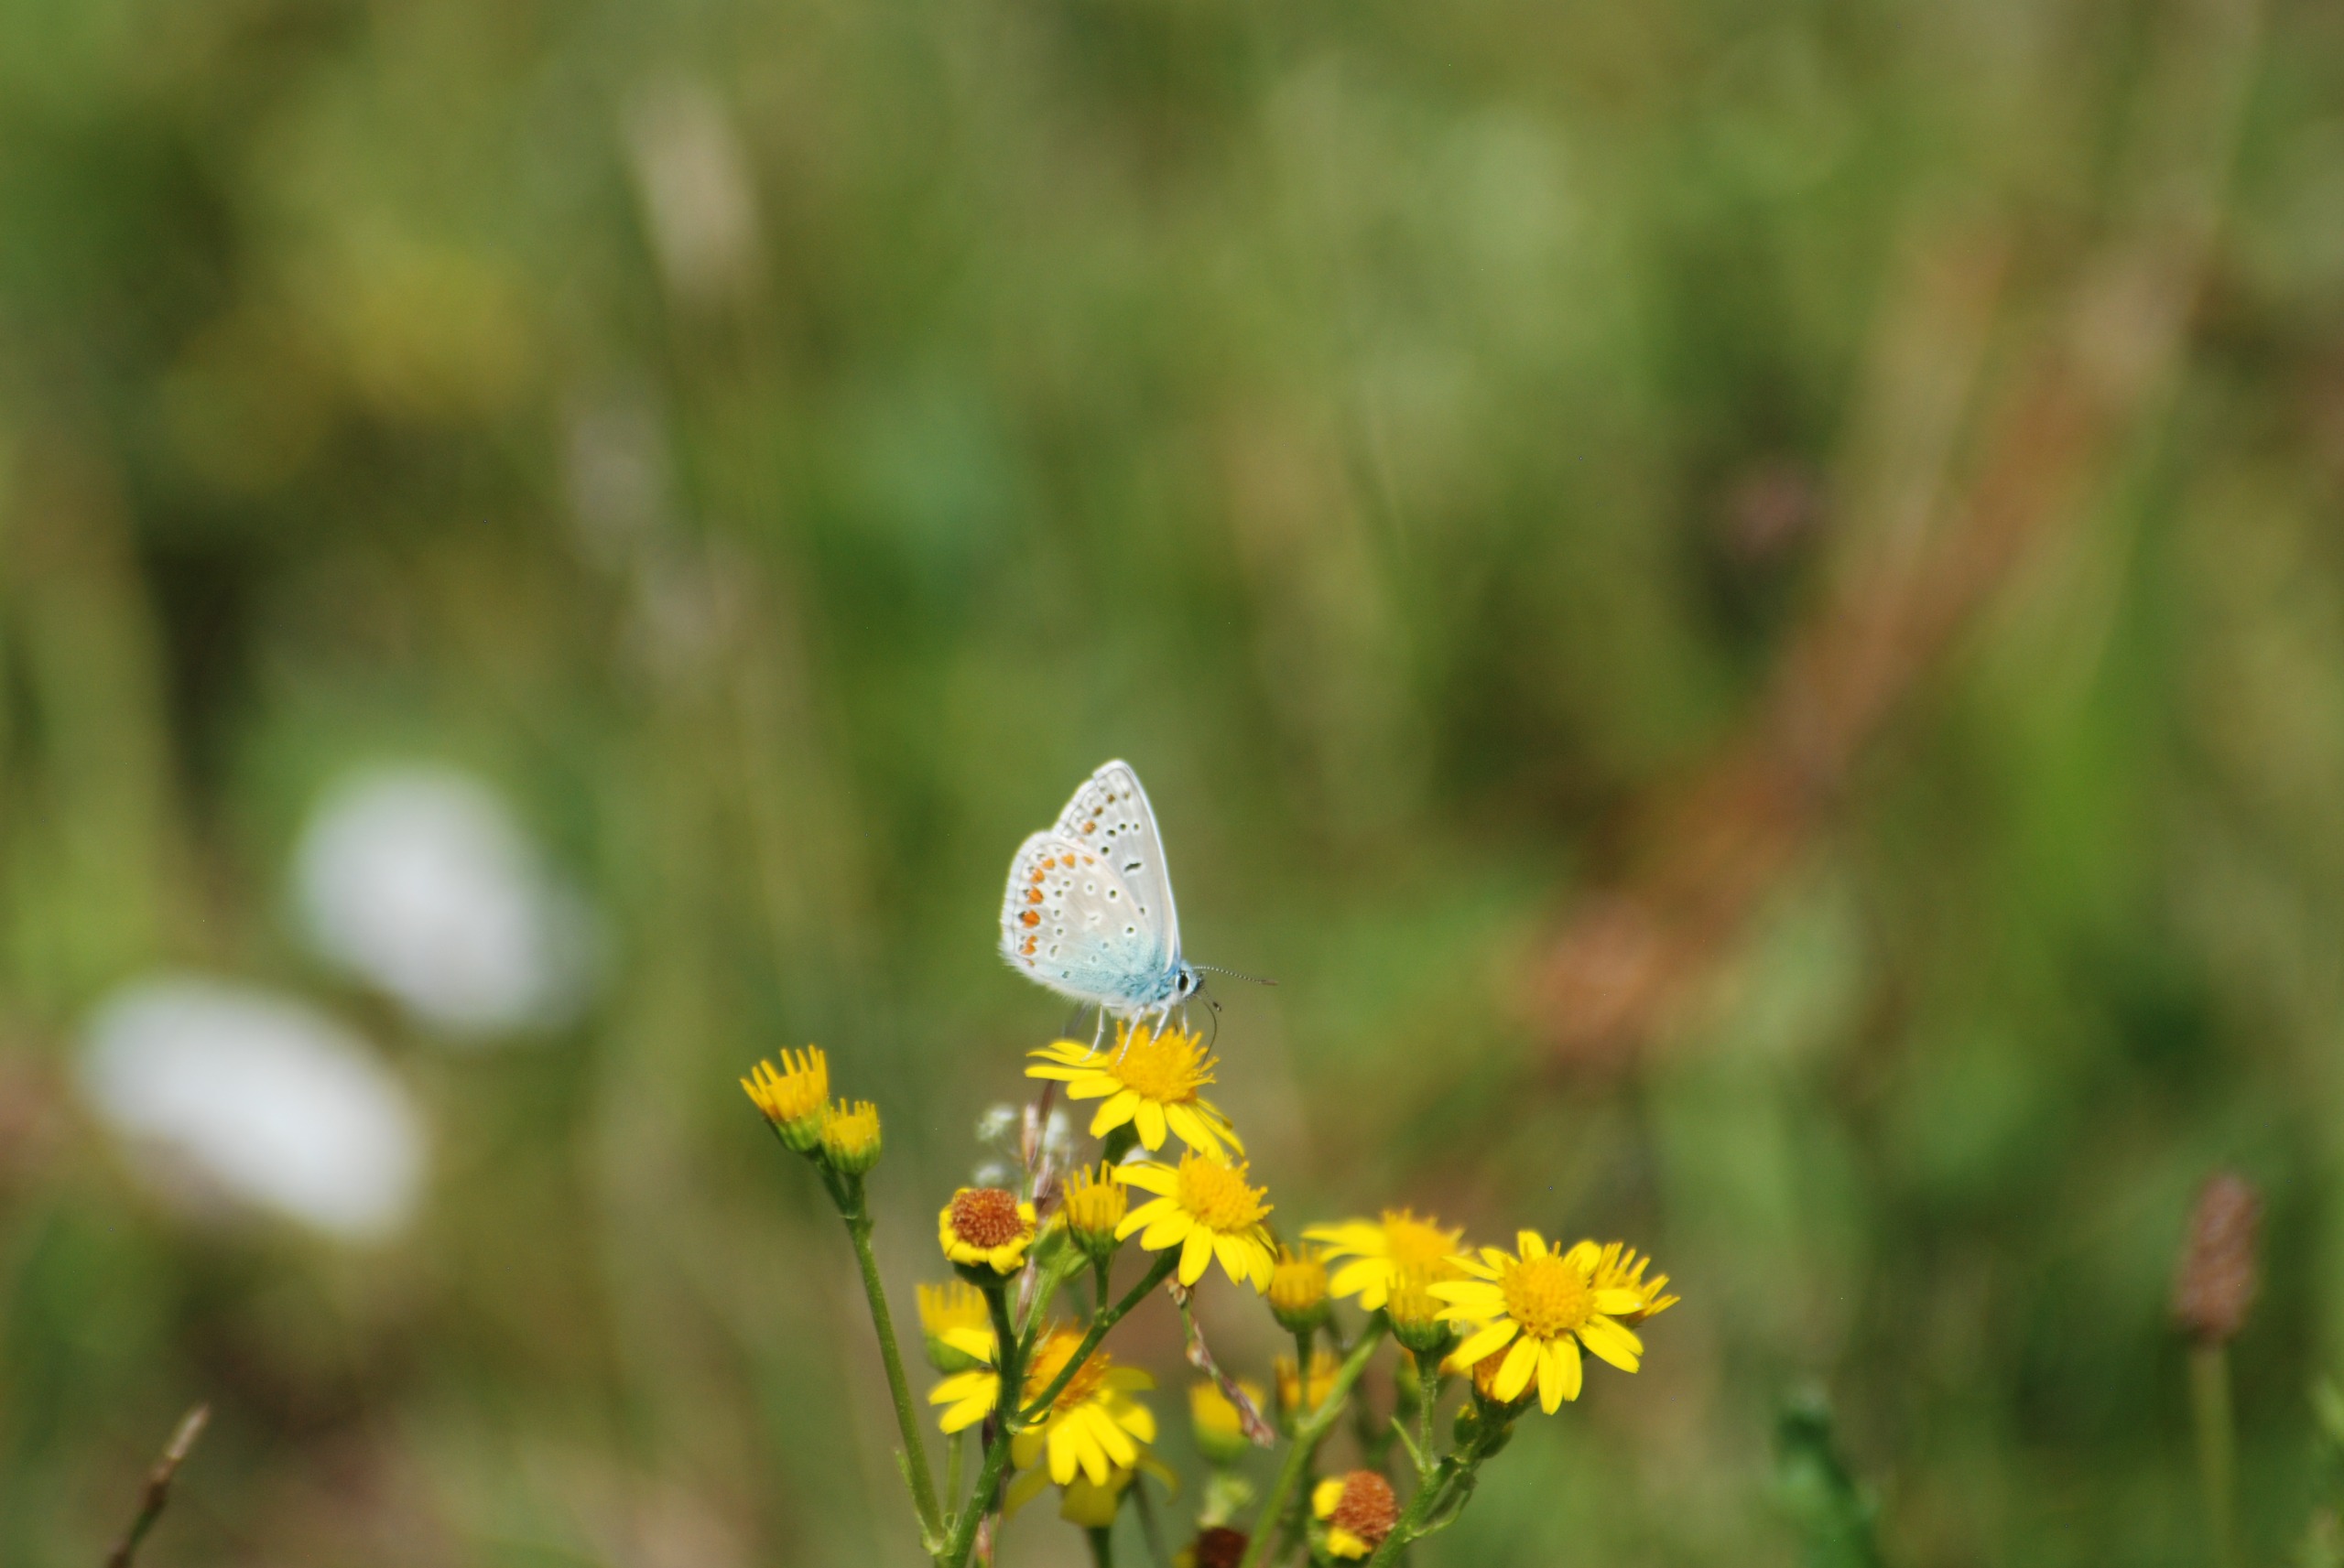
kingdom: Animalia
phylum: Arthropoda
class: Insecta
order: Lepidoptera
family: Lycaenidae
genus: Polyommatus
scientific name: Polyommatus icarus
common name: Almindelig blåfugl
